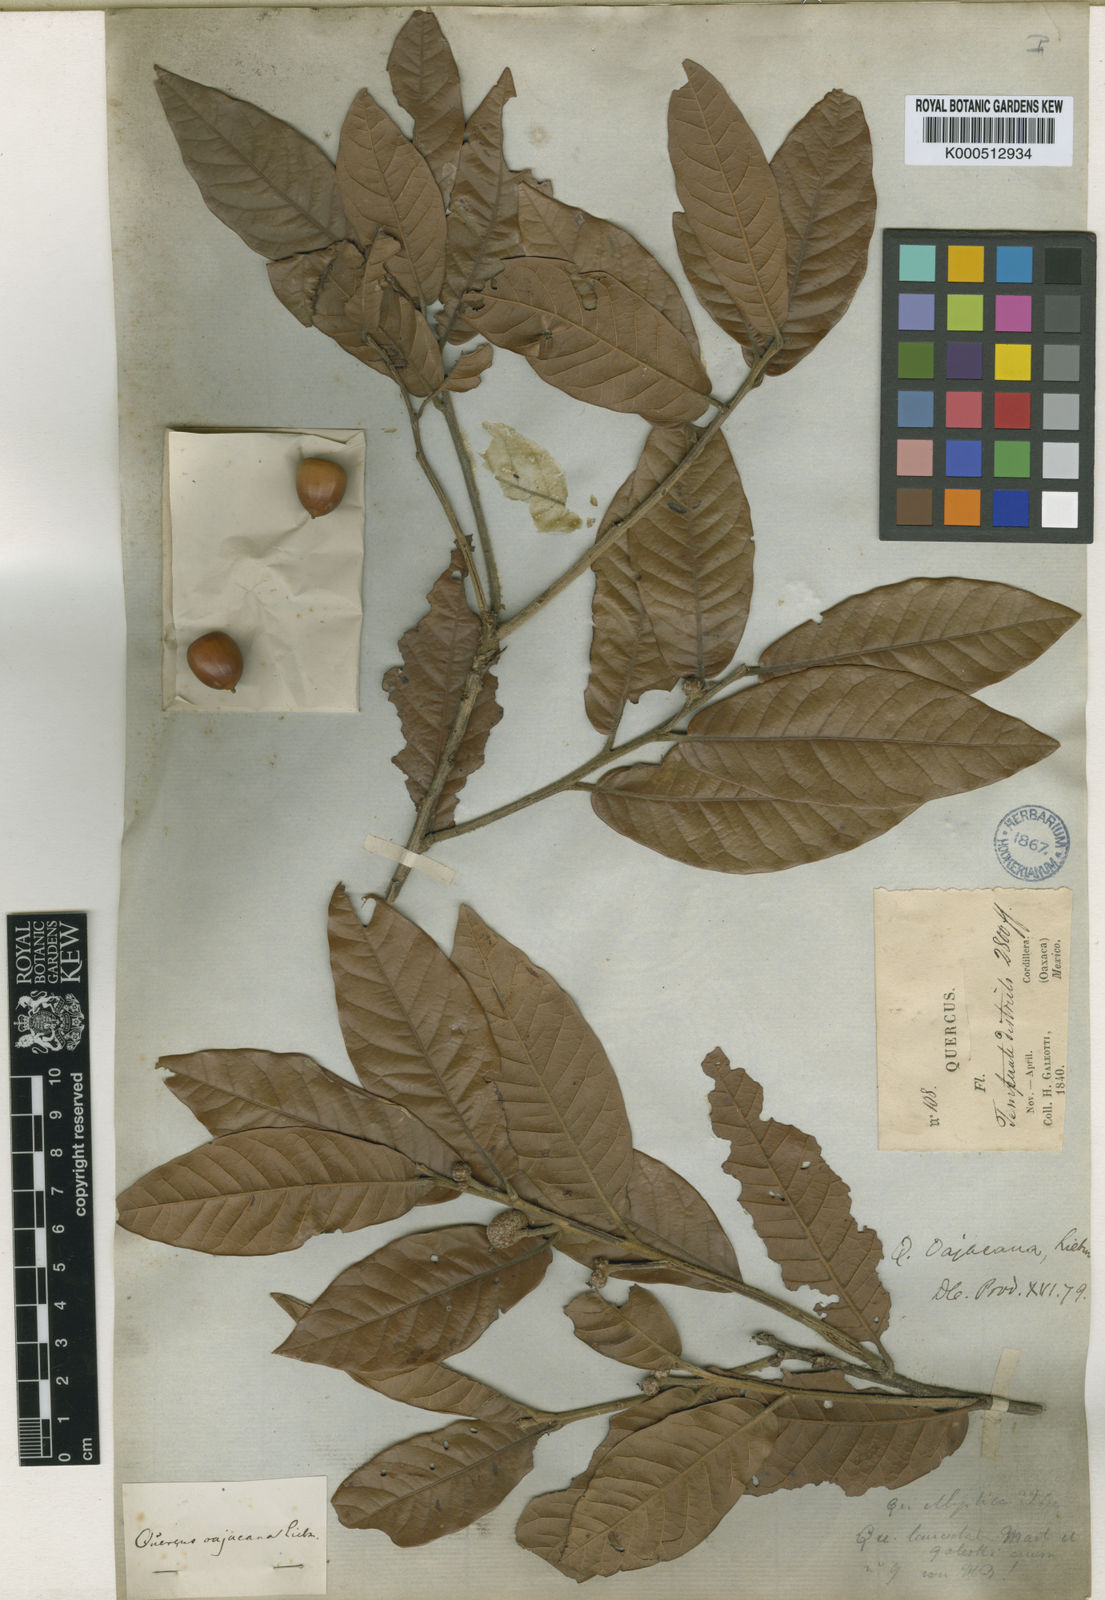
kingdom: Plantae
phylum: Tracheophyta
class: Magnoliopsida
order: Fagales
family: Fagaceae
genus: Quercus
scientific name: Quercus elliptica
